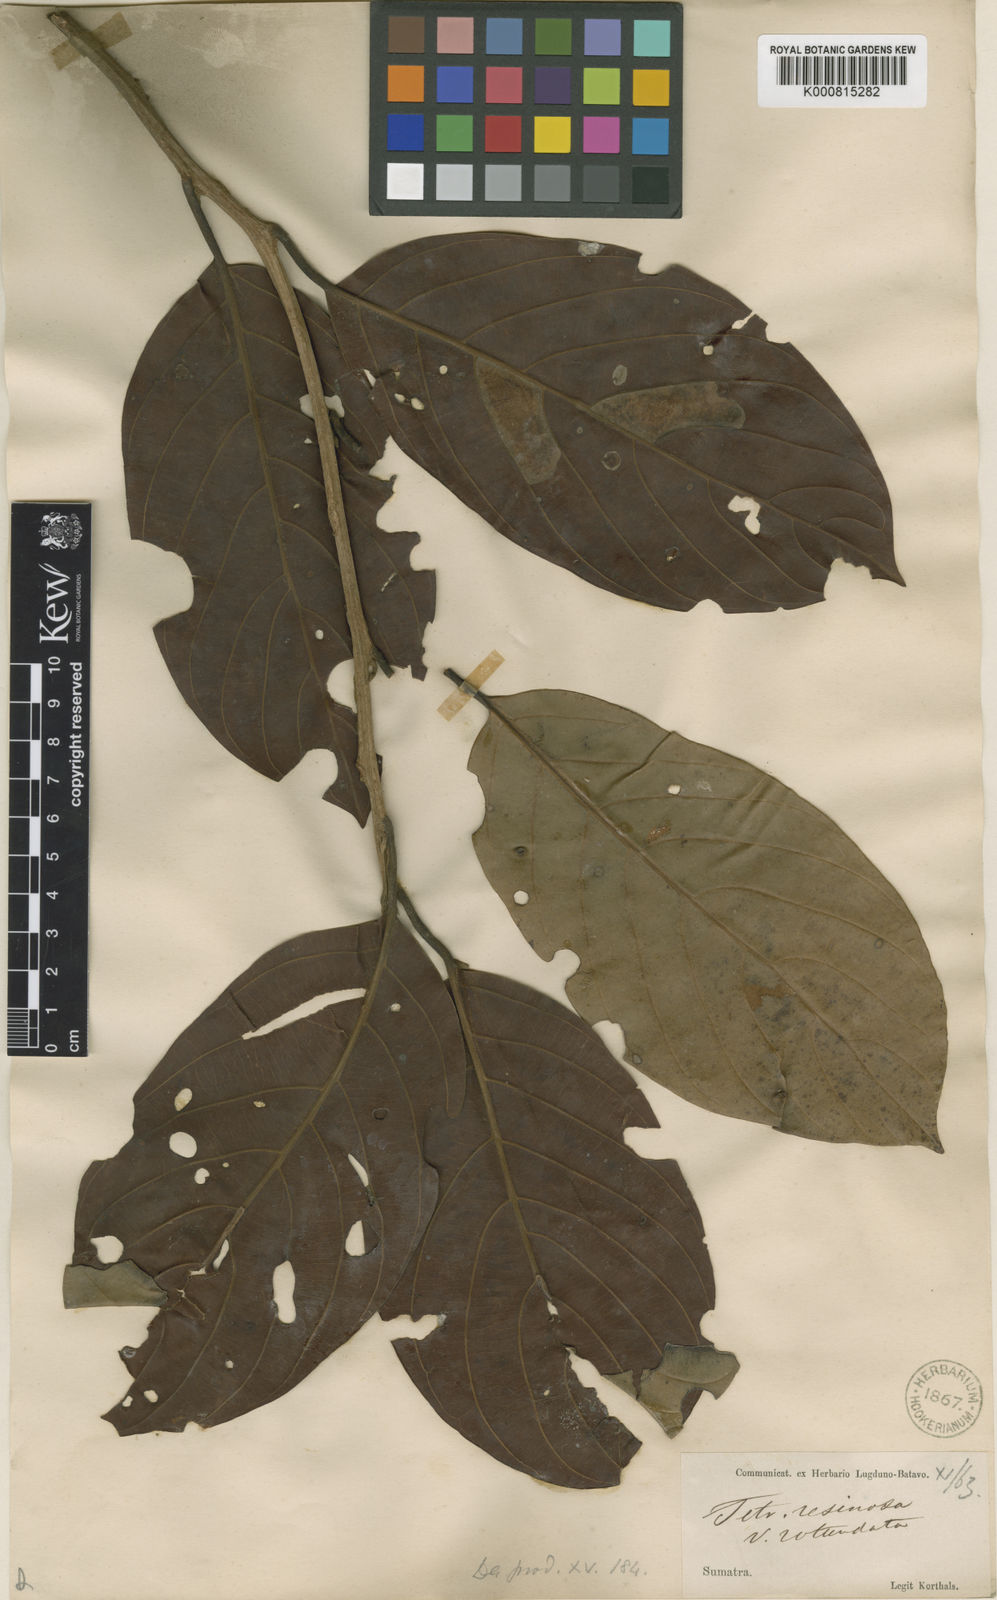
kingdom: Plantae
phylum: Tracheophyta
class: Magnoliopsida
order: Laurales
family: Lauraceae
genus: Litsea
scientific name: Litsea resinosa
